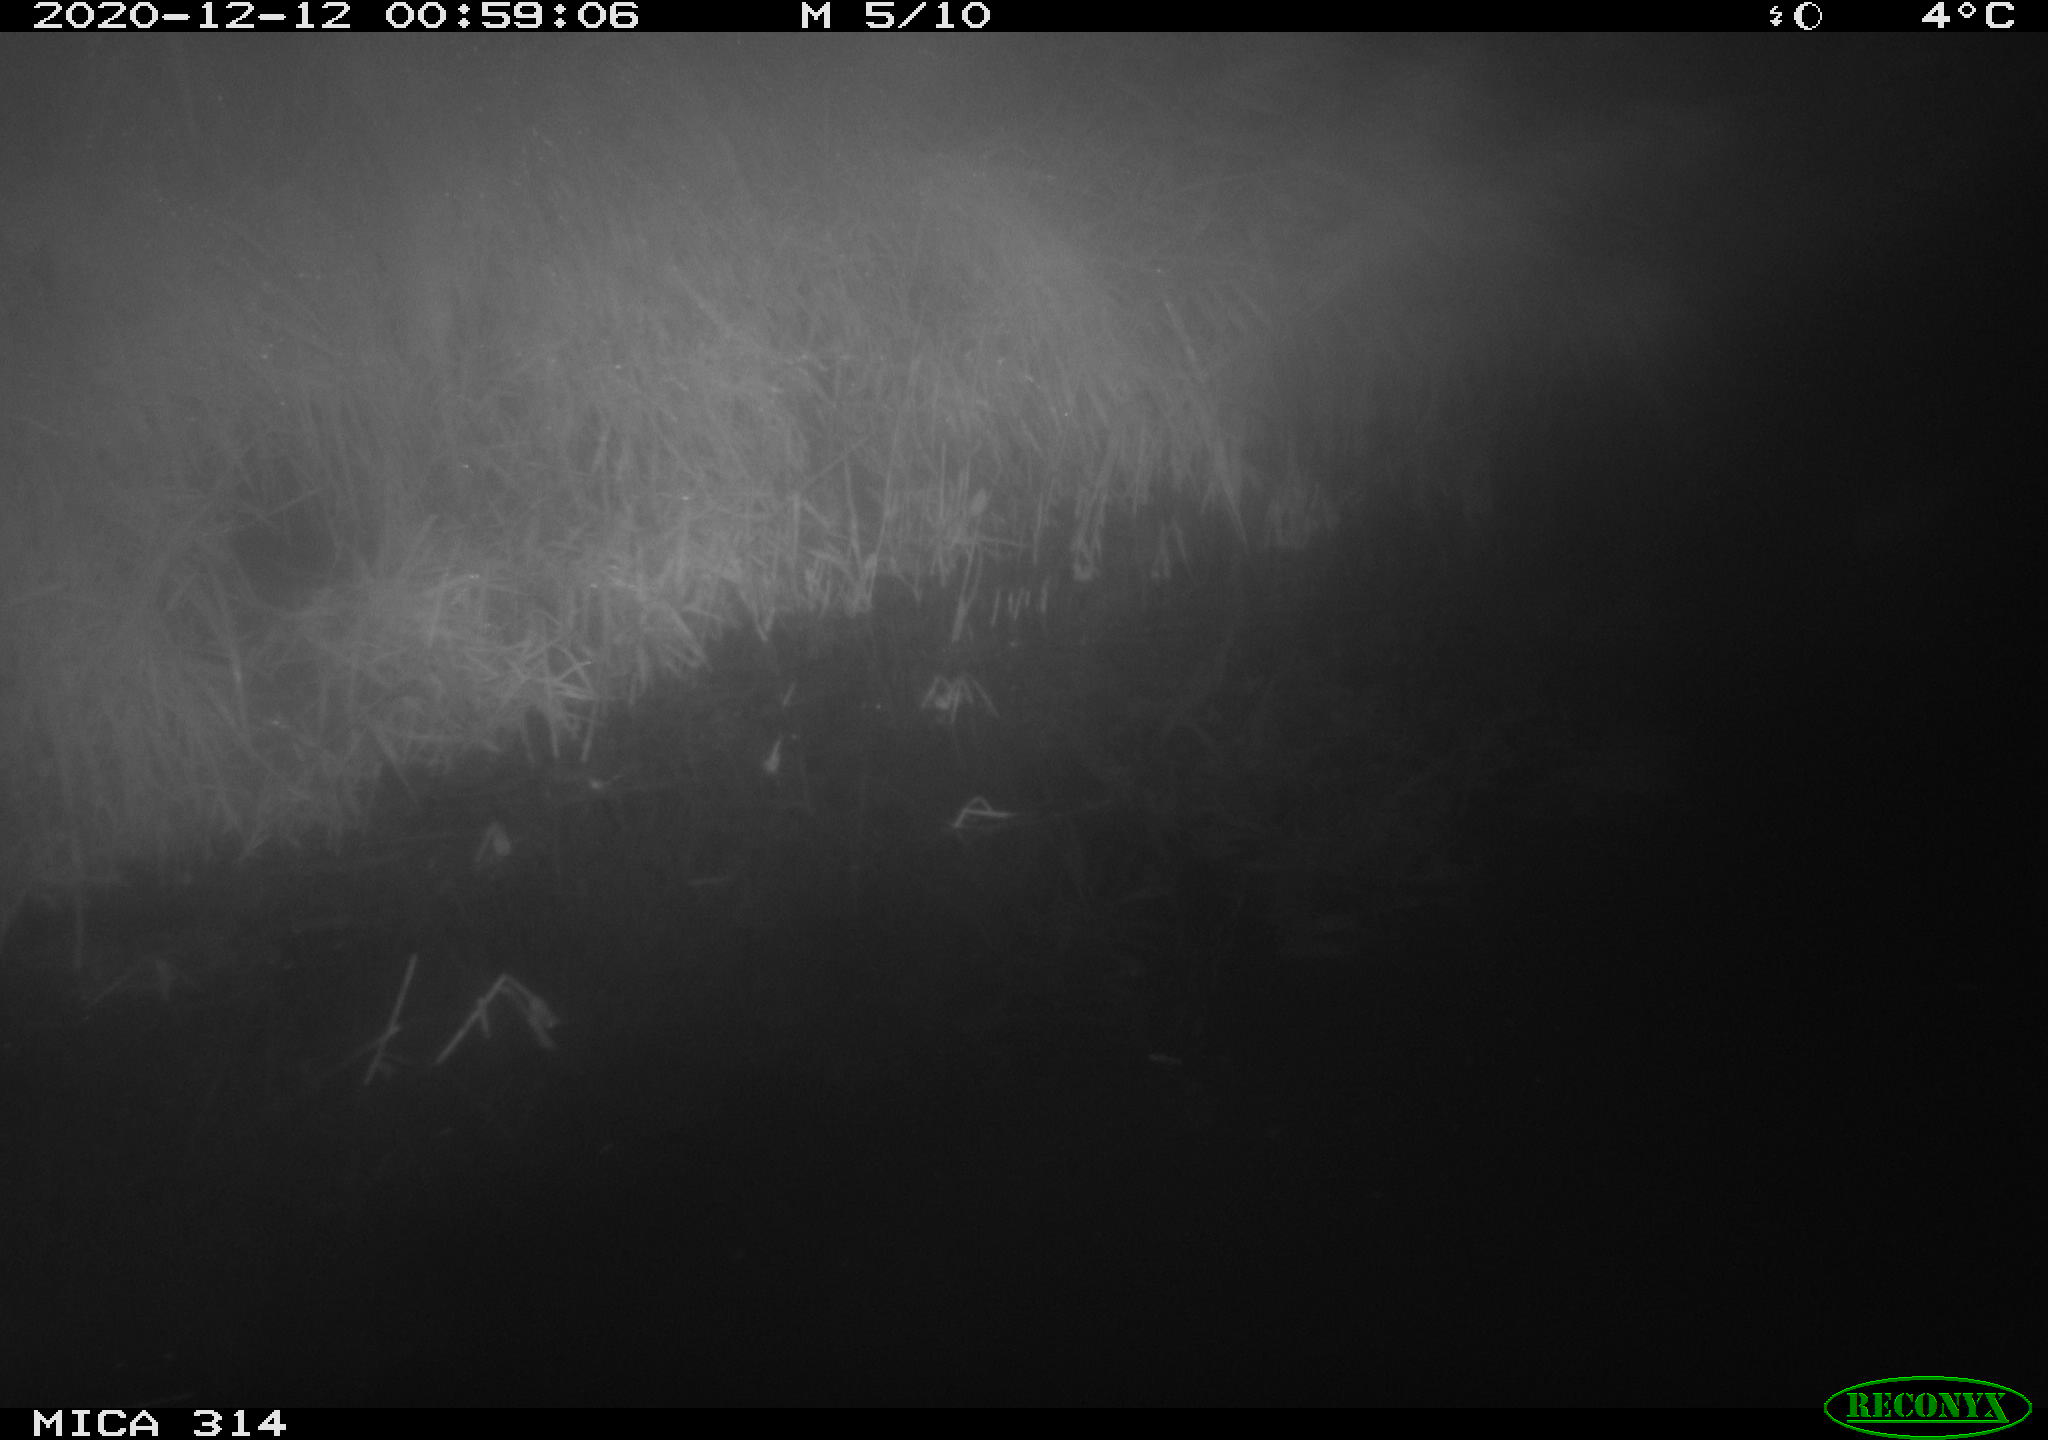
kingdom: Animalia
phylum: Chordata
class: Mammalia
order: Rodentia
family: Muridae
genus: Rattus
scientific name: Rattus norvegicus
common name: Brown rat
